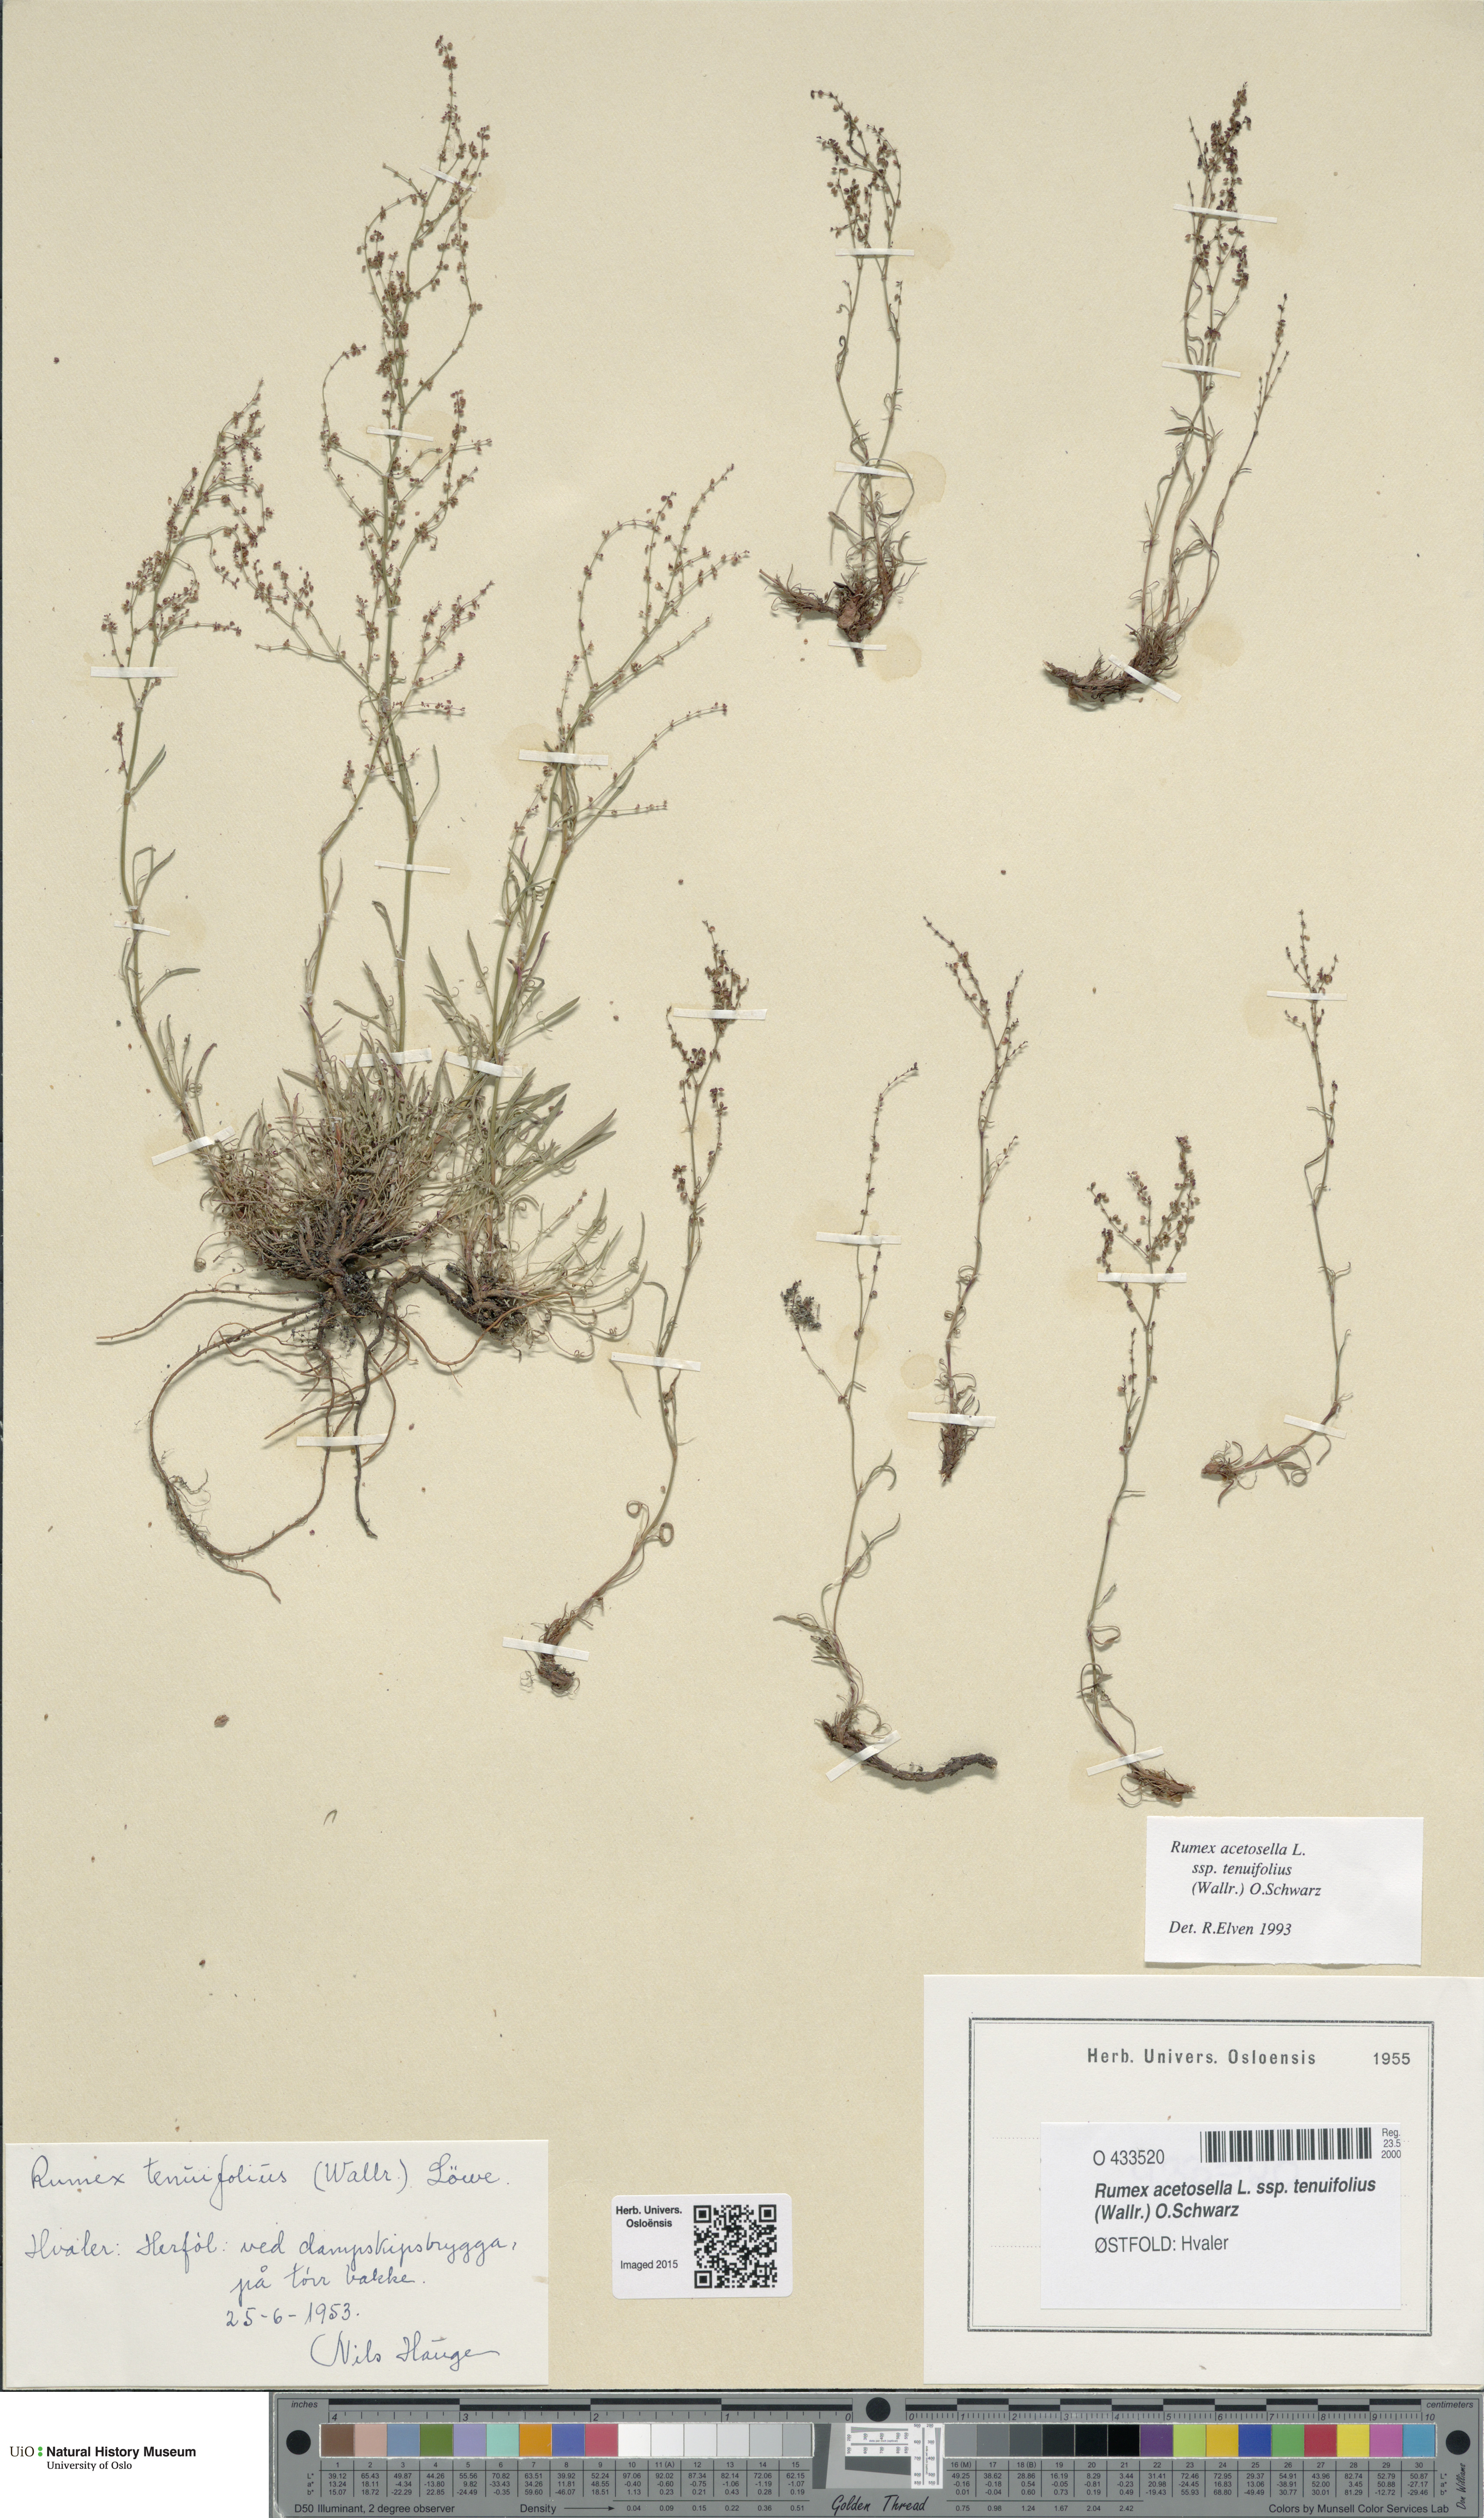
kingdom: Plantae
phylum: Tracheophyta
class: Magnoliopsida
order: Caryophyllales
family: Polygonaceae
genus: Rumex
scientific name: Rumex acetosella
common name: Common sheep sorrel
